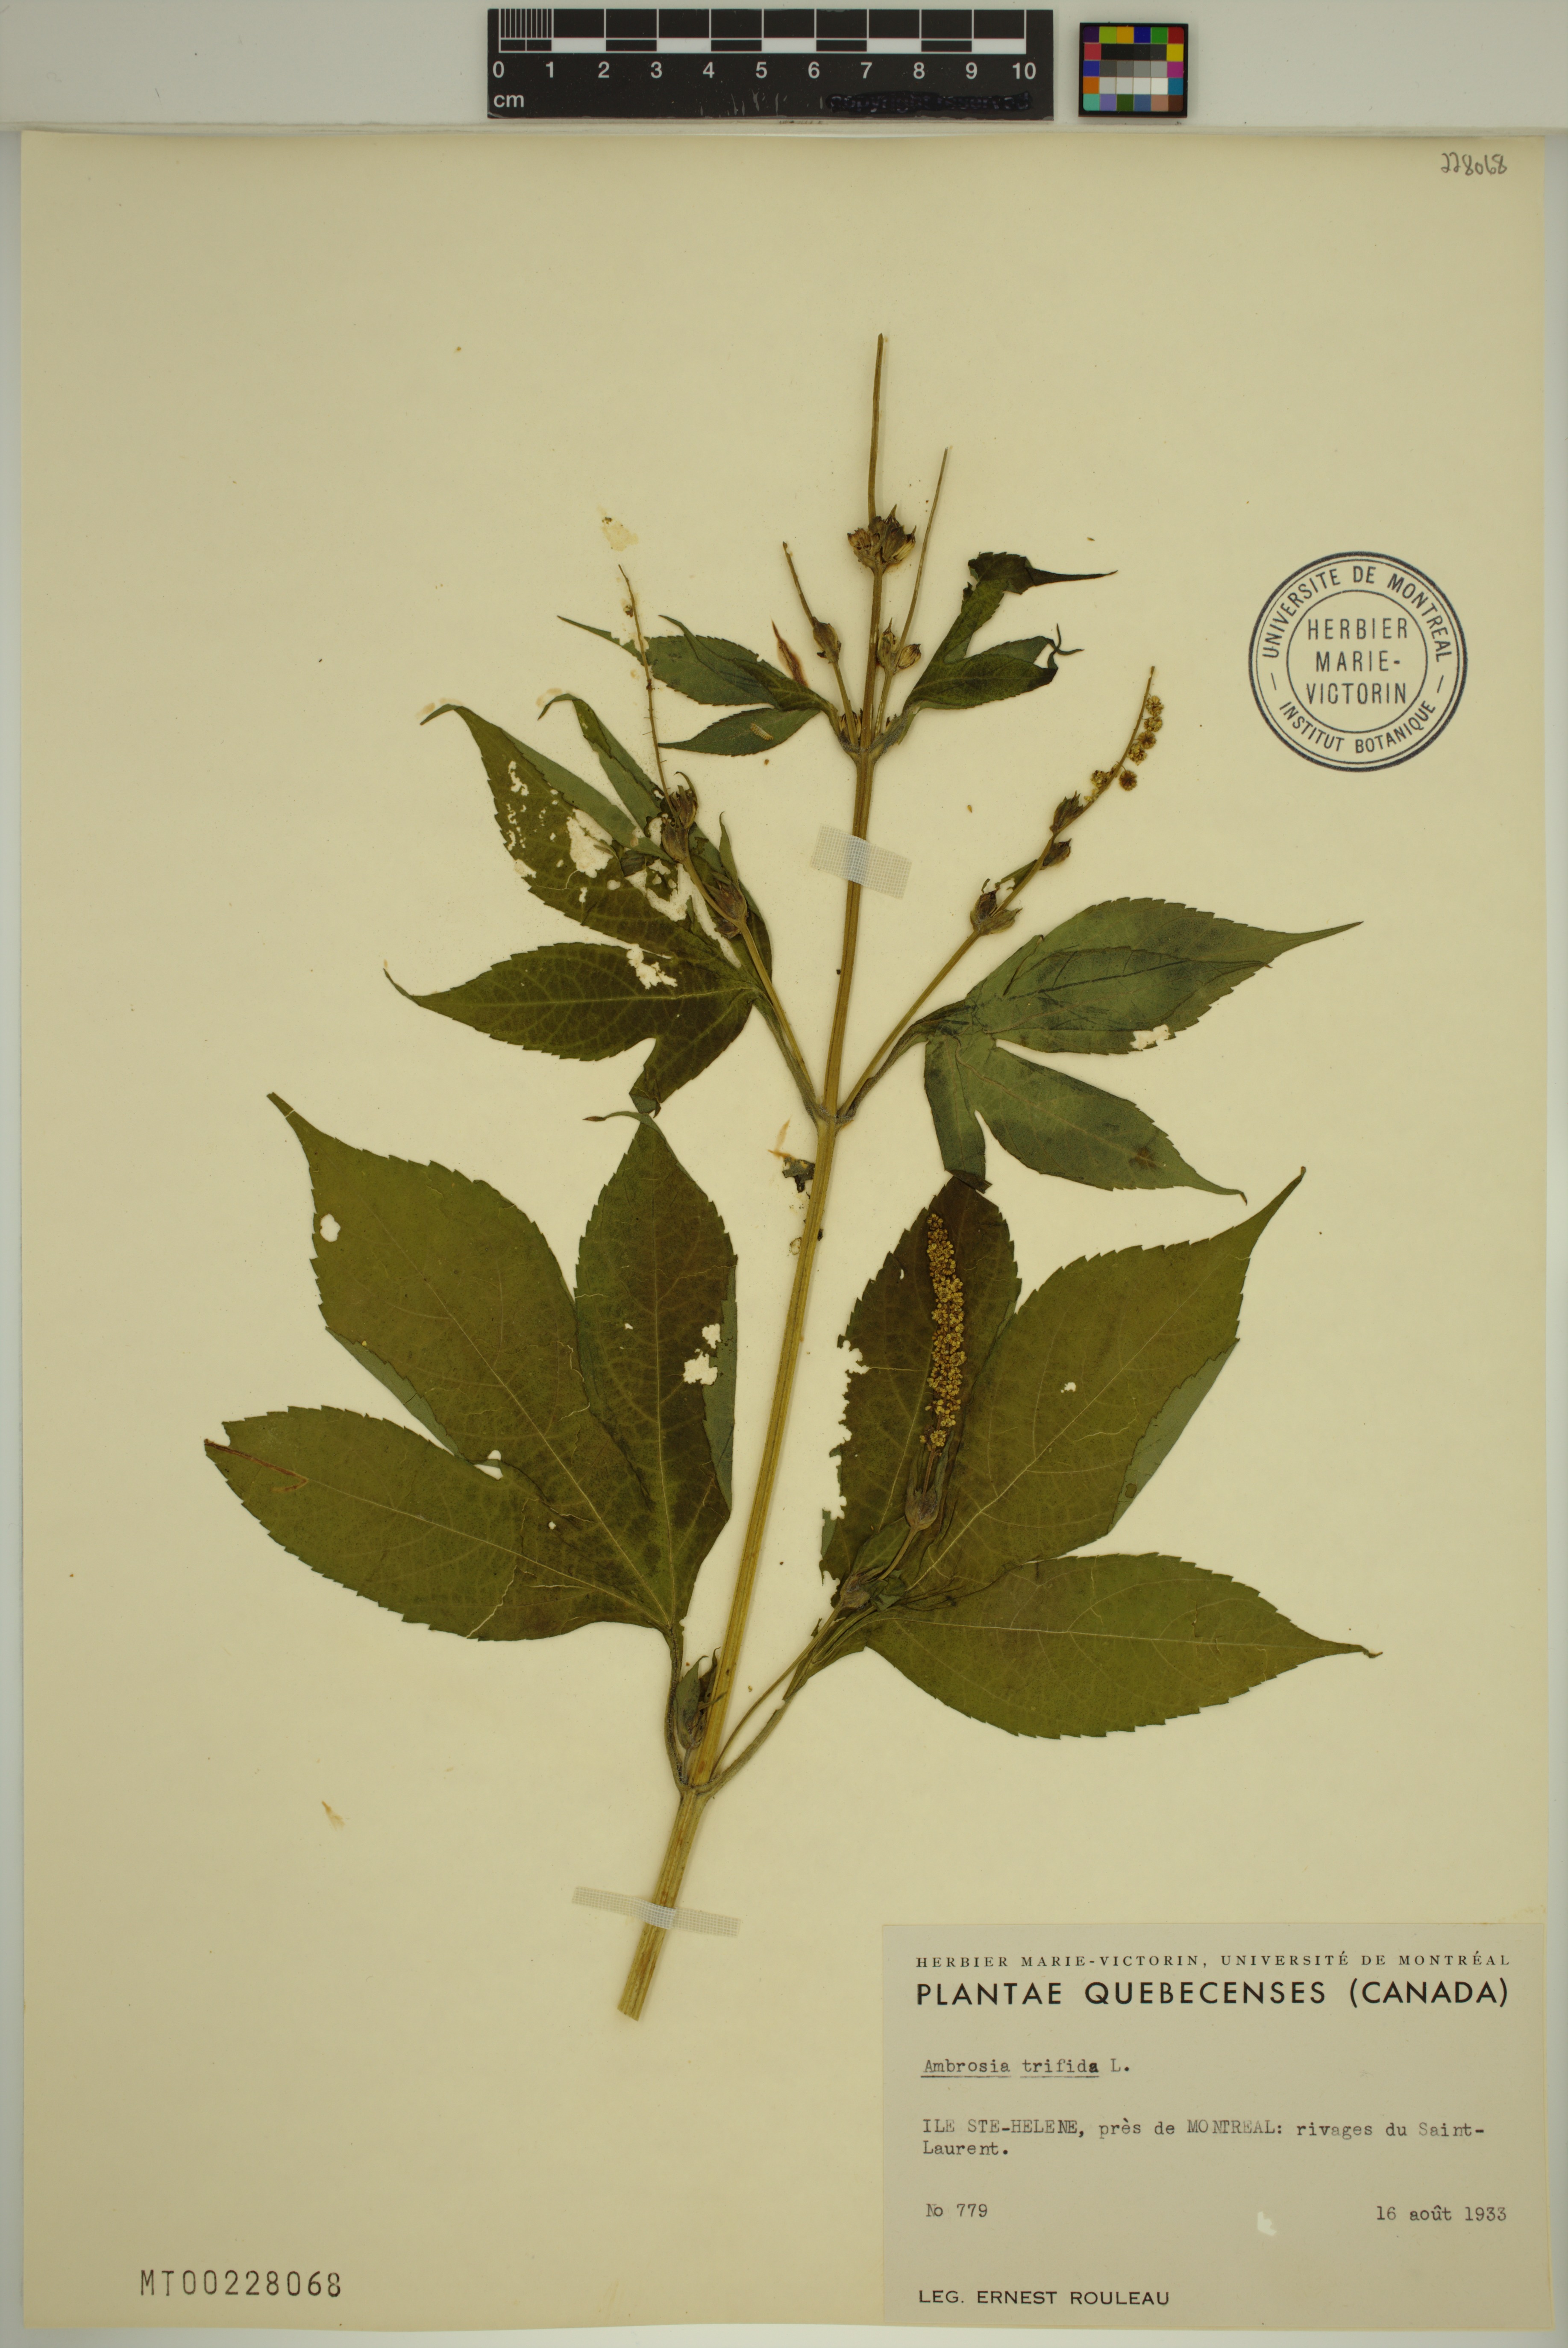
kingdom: Plantae
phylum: Tracheophyta
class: Magnoliopsida
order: Asterales
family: Asteraceae
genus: Ambrosia
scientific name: Ambrosia trifida
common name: Giant ragweed
